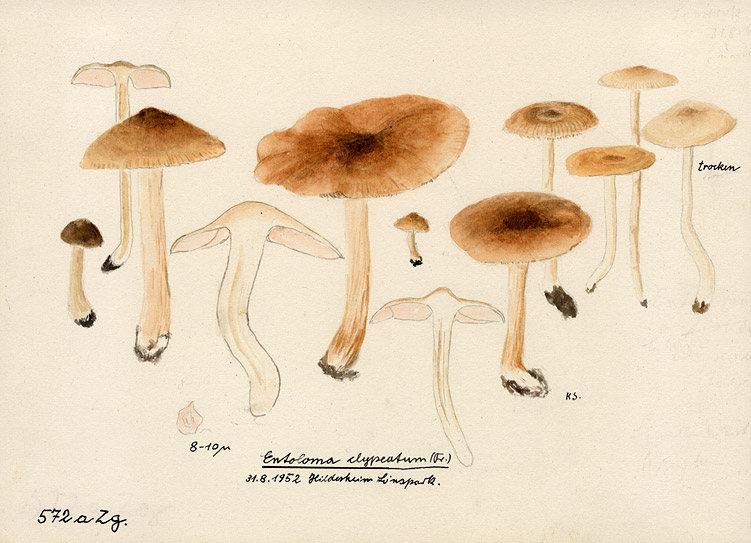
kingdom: Fungi
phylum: Basidiomycota
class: Agaricomycetes
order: Agaricales
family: Entolomataceae
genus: Entoloma
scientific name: Entoloma clypeatum
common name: Shield pinkgill
